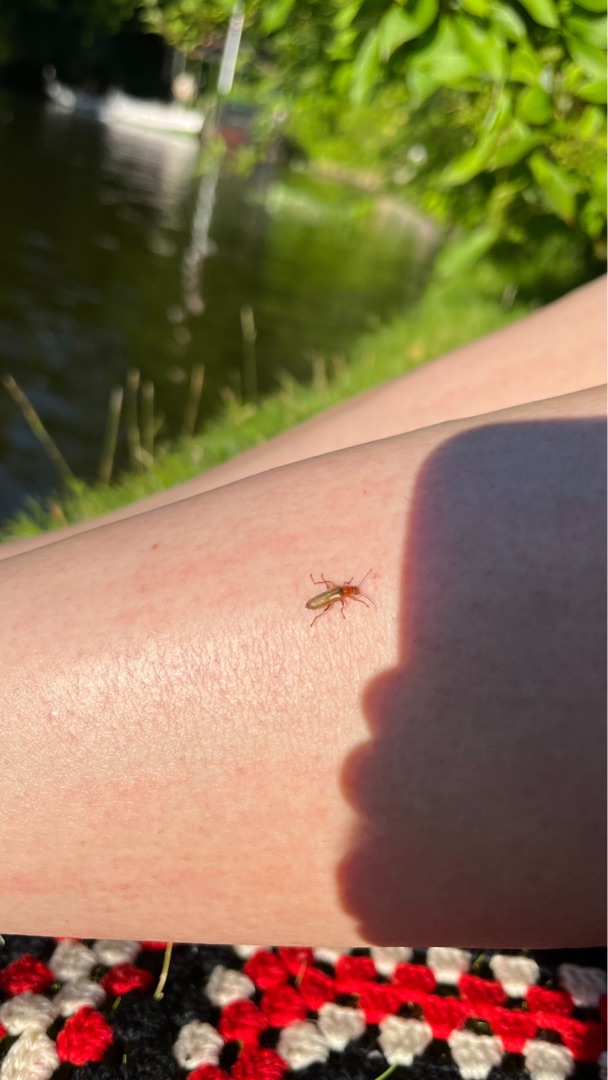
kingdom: Animalia
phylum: Arthropoda
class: Insecta
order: Coleoptera
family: Cantharidae
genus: Cantharis
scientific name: Cantharis
